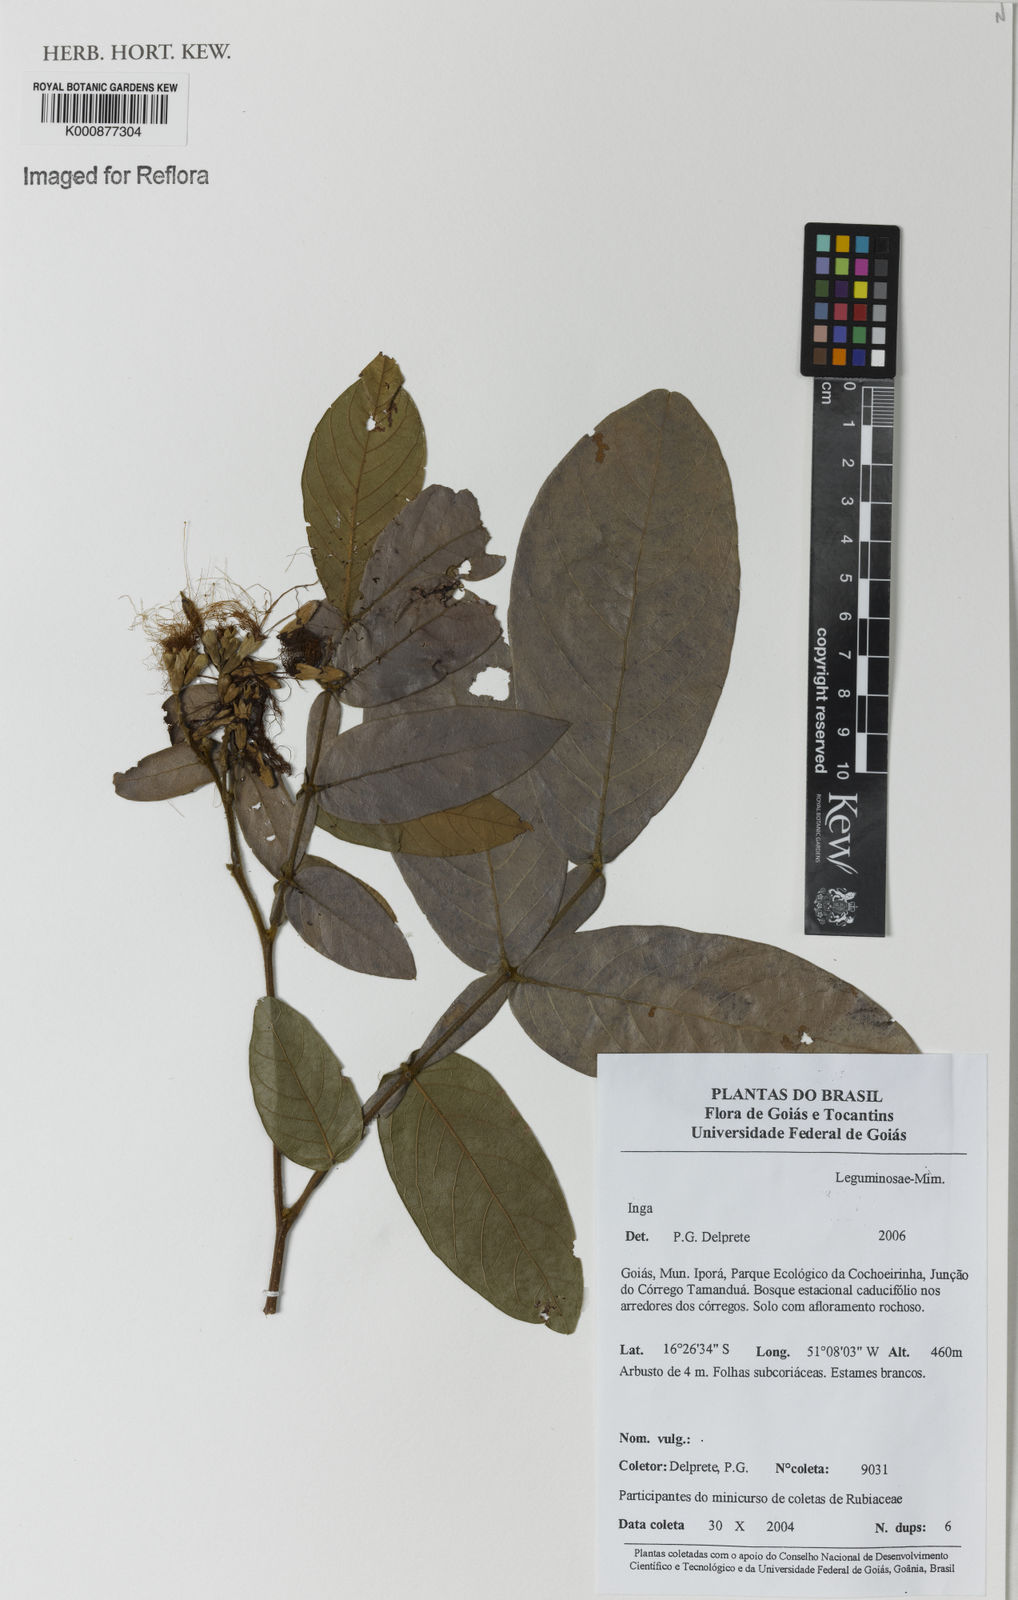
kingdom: Plantae
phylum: Tracheophyta
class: Magnoliopsida
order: Fabales
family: Fabaceae
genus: Inga
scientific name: Inga
